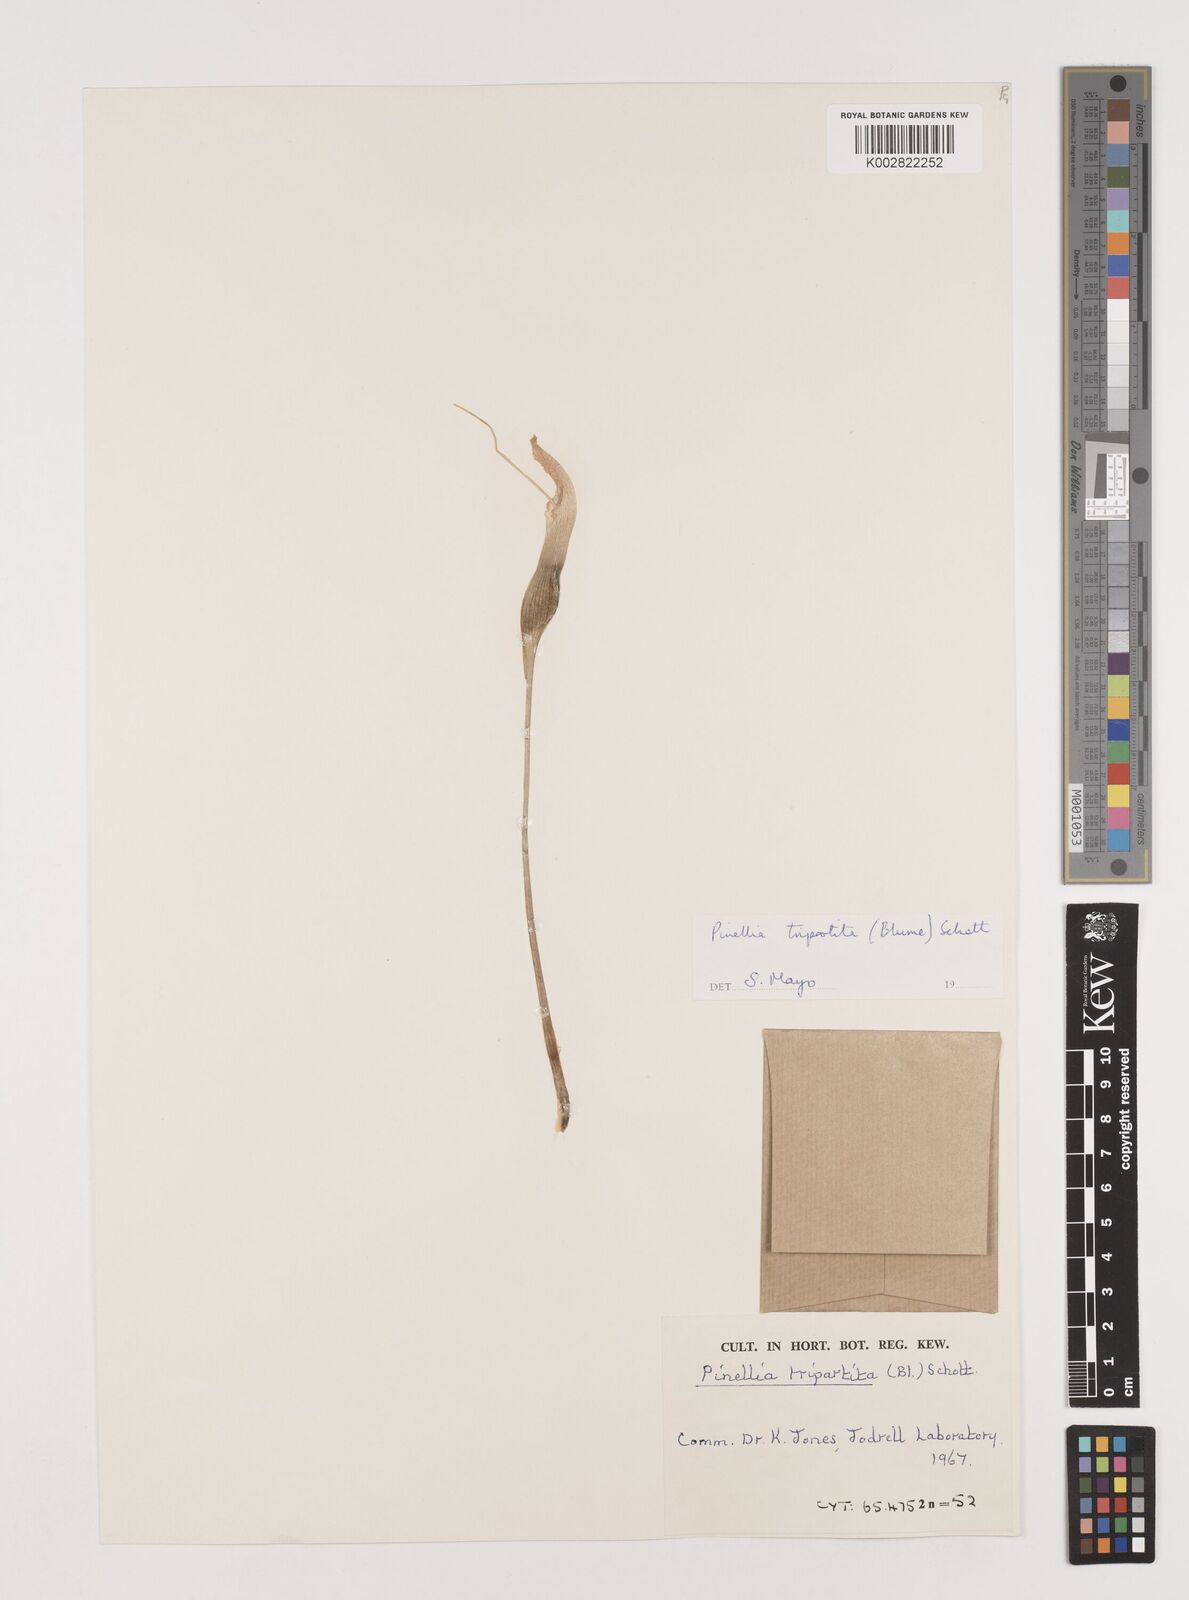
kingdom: Plantae
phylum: Tracheophyta
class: Liliopsida
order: Alismatales
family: Araceae
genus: Pinellia
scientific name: Pinellia tripartita
